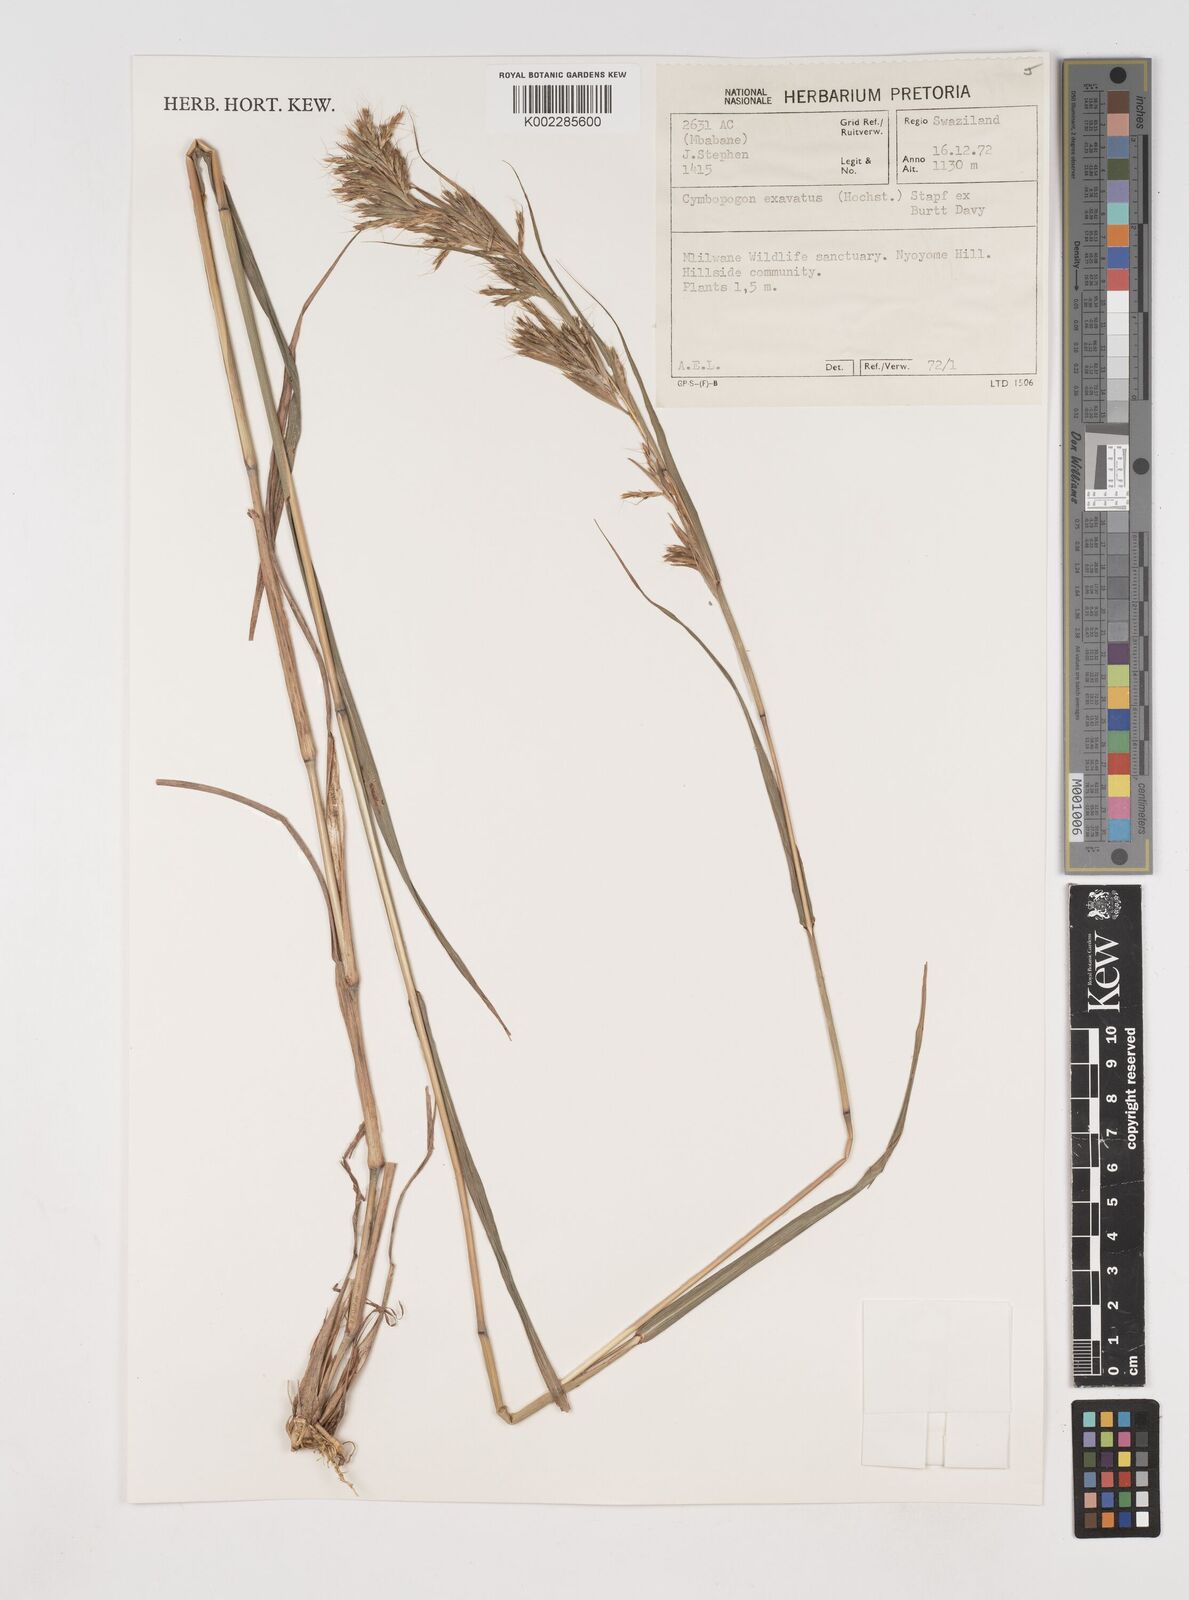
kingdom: Plantae
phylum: Tracheophyta
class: Liliopsida
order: Poales
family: Poaceae
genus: Cymbopogon
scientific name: Cymbopogon caesius
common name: Kachi grass
